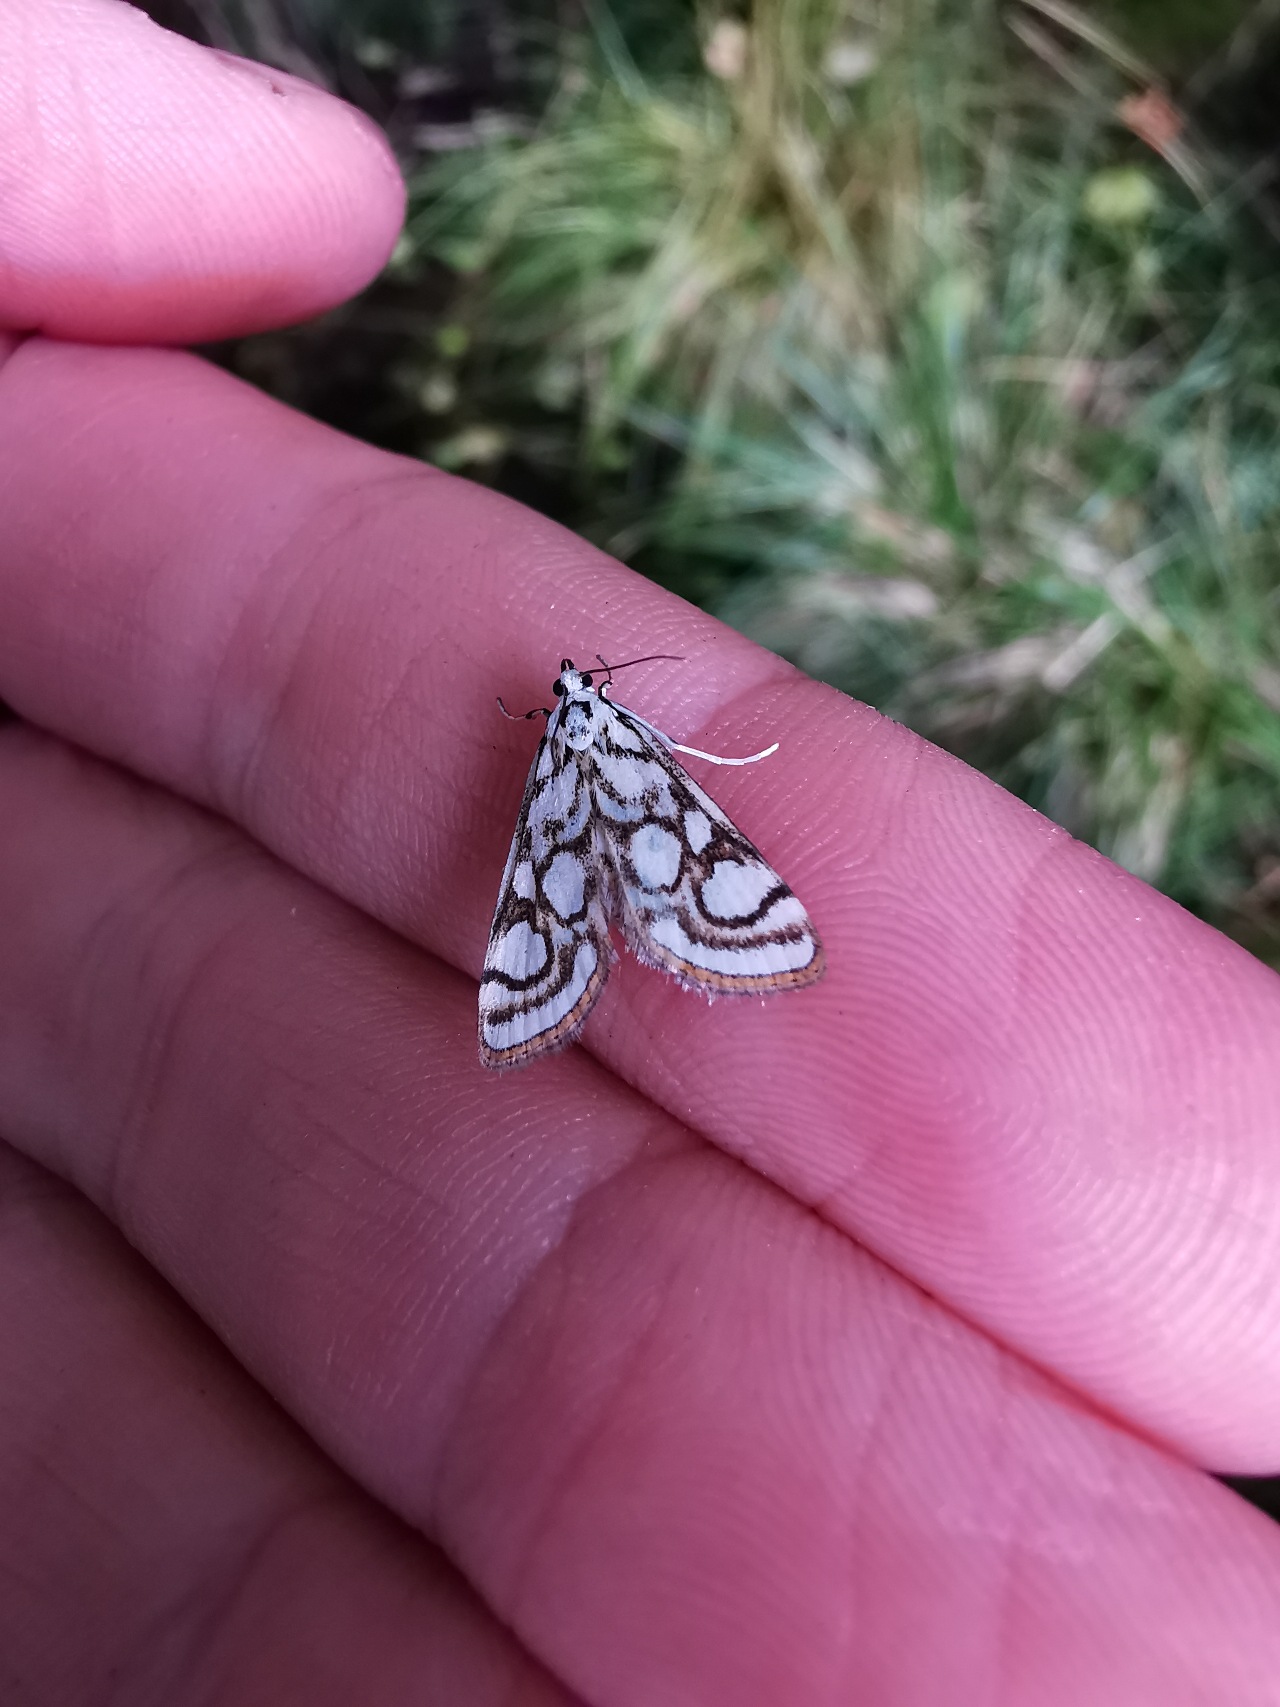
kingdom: Animalia
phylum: Arthropoda
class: Insecta
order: Lepidoptera
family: Crambidae
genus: Nymphula
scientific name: Nymphula nitidulata
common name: Lille porcelænsmøl
